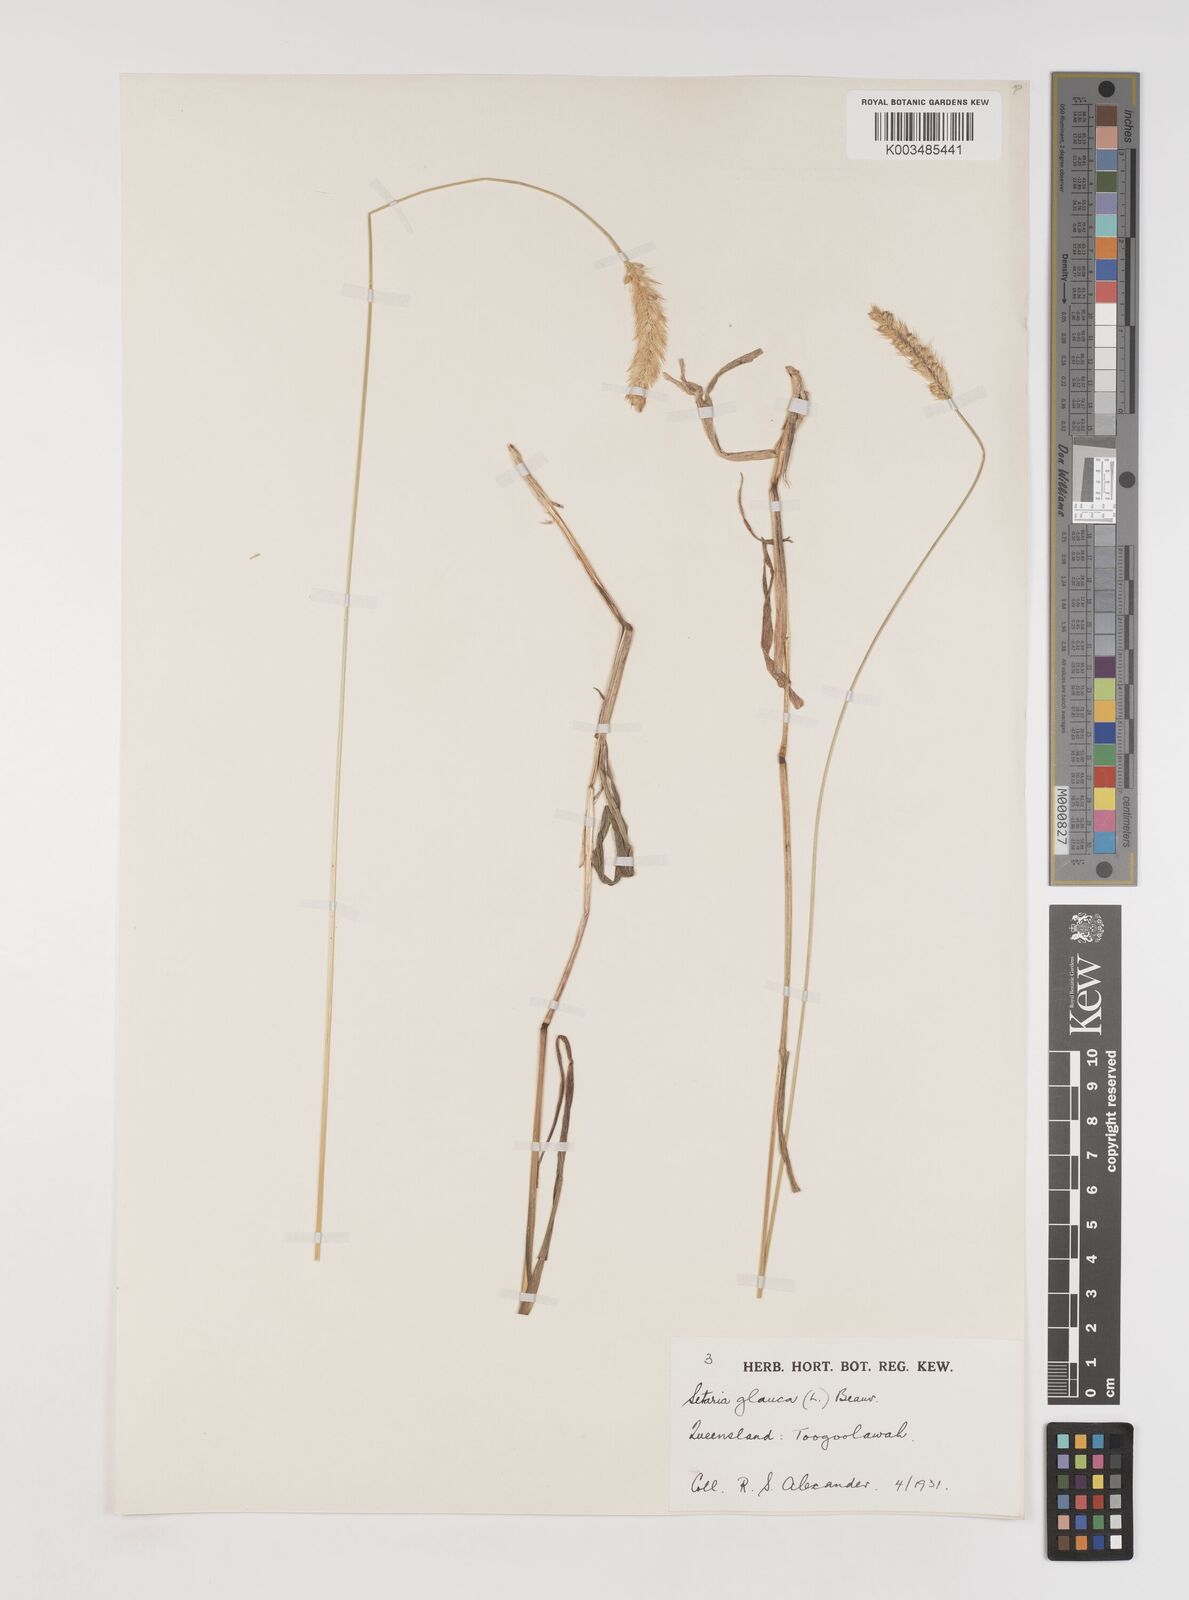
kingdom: Plantae
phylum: Tracheophyta
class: Liliopsida
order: Poales
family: Poaceae
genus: Setaria
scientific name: Setaria pumila
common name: Yellow bristle-grass
